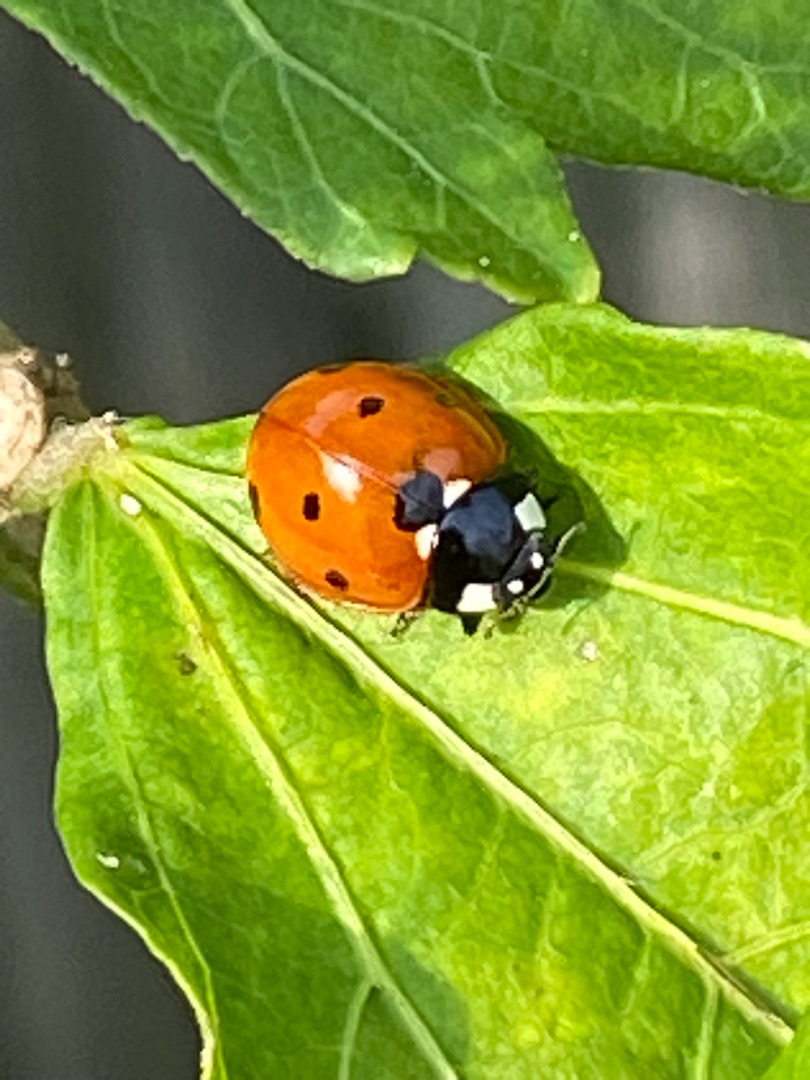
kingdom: Animalia
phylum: Arthropoda
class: Insecta
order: Coleoptera
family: Coccinellidae
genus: Coccinella
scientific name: Coccinella septempunctata
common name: Syvplettet mariehøne
